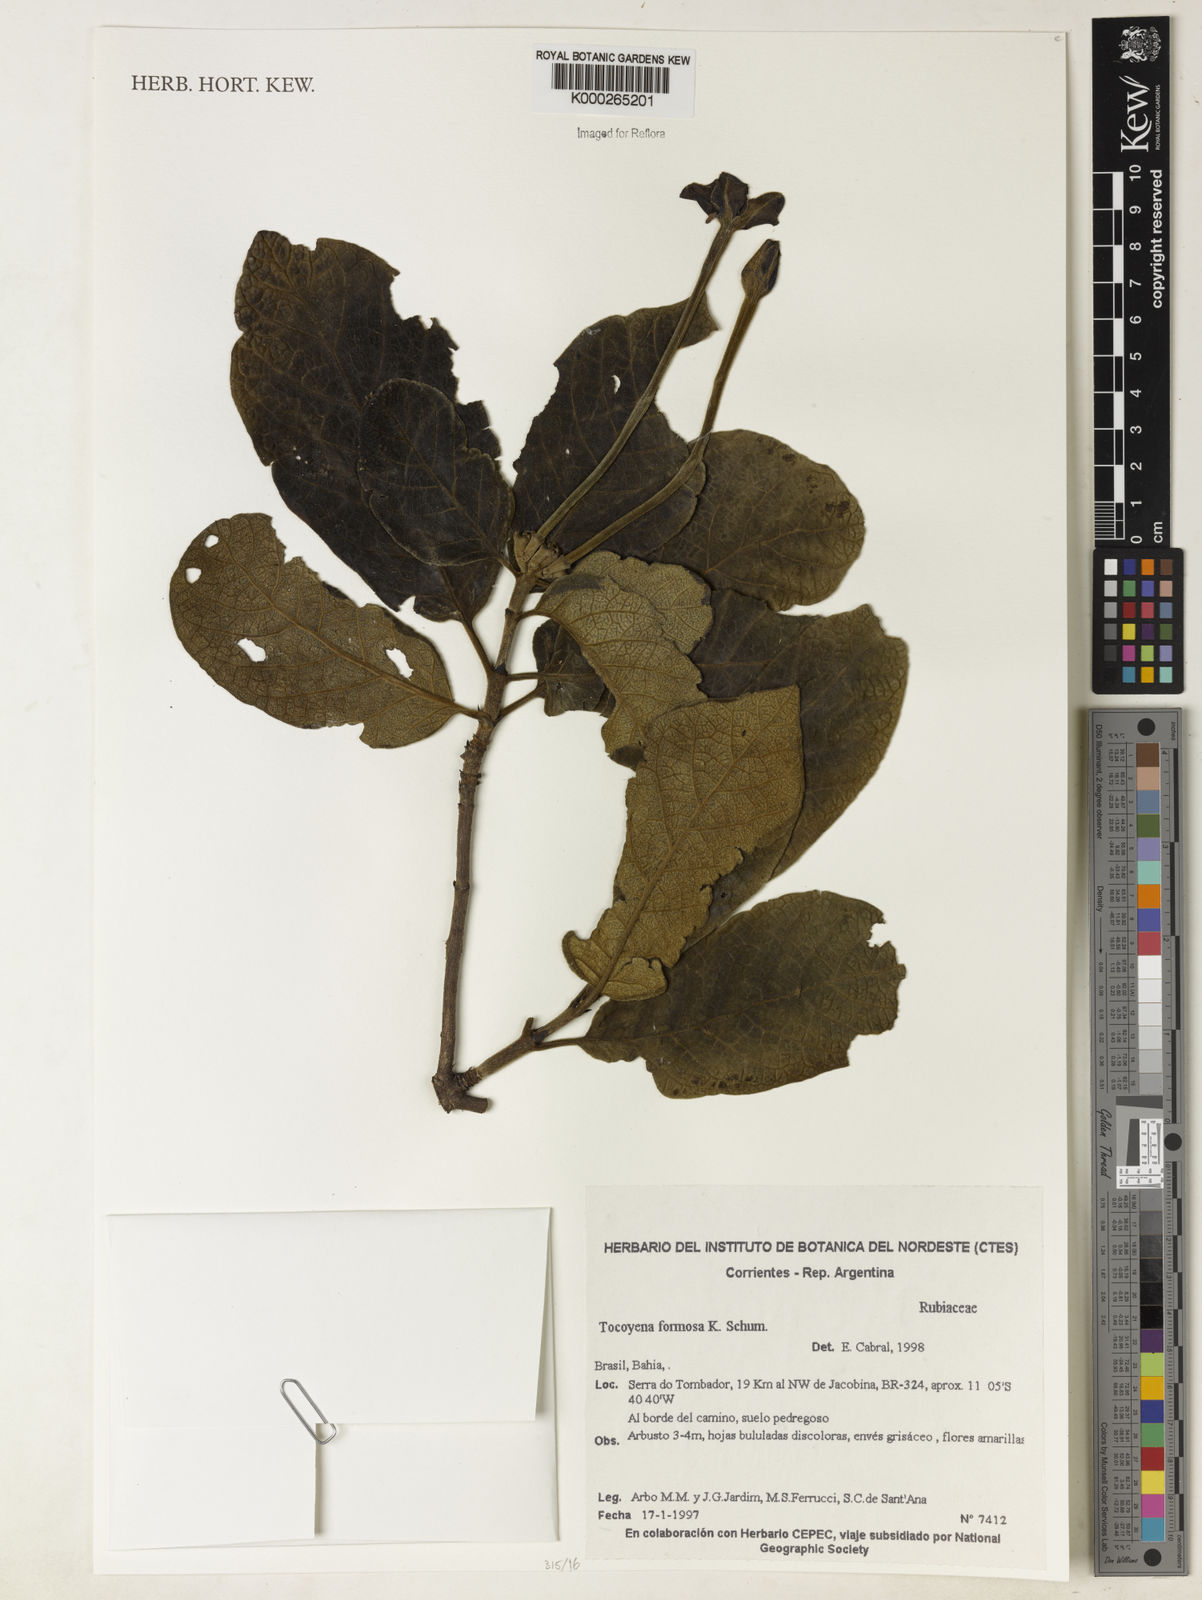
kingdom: Plantae
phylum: Tracheophyta
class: Magnoliopsida
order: Gentianales
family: Rubiaceae
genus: Tocoyena
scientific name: Tocoyena formosa
